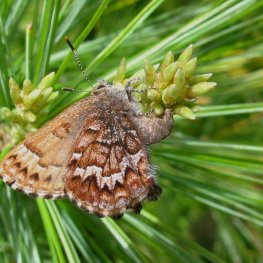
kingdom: Animalia
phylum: Arthropoda
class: Insecta
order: Lepidoptera
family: Lycaenidae
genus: Incisalia
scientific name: Incisalia niphon
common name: Eastern Pine Elfin
